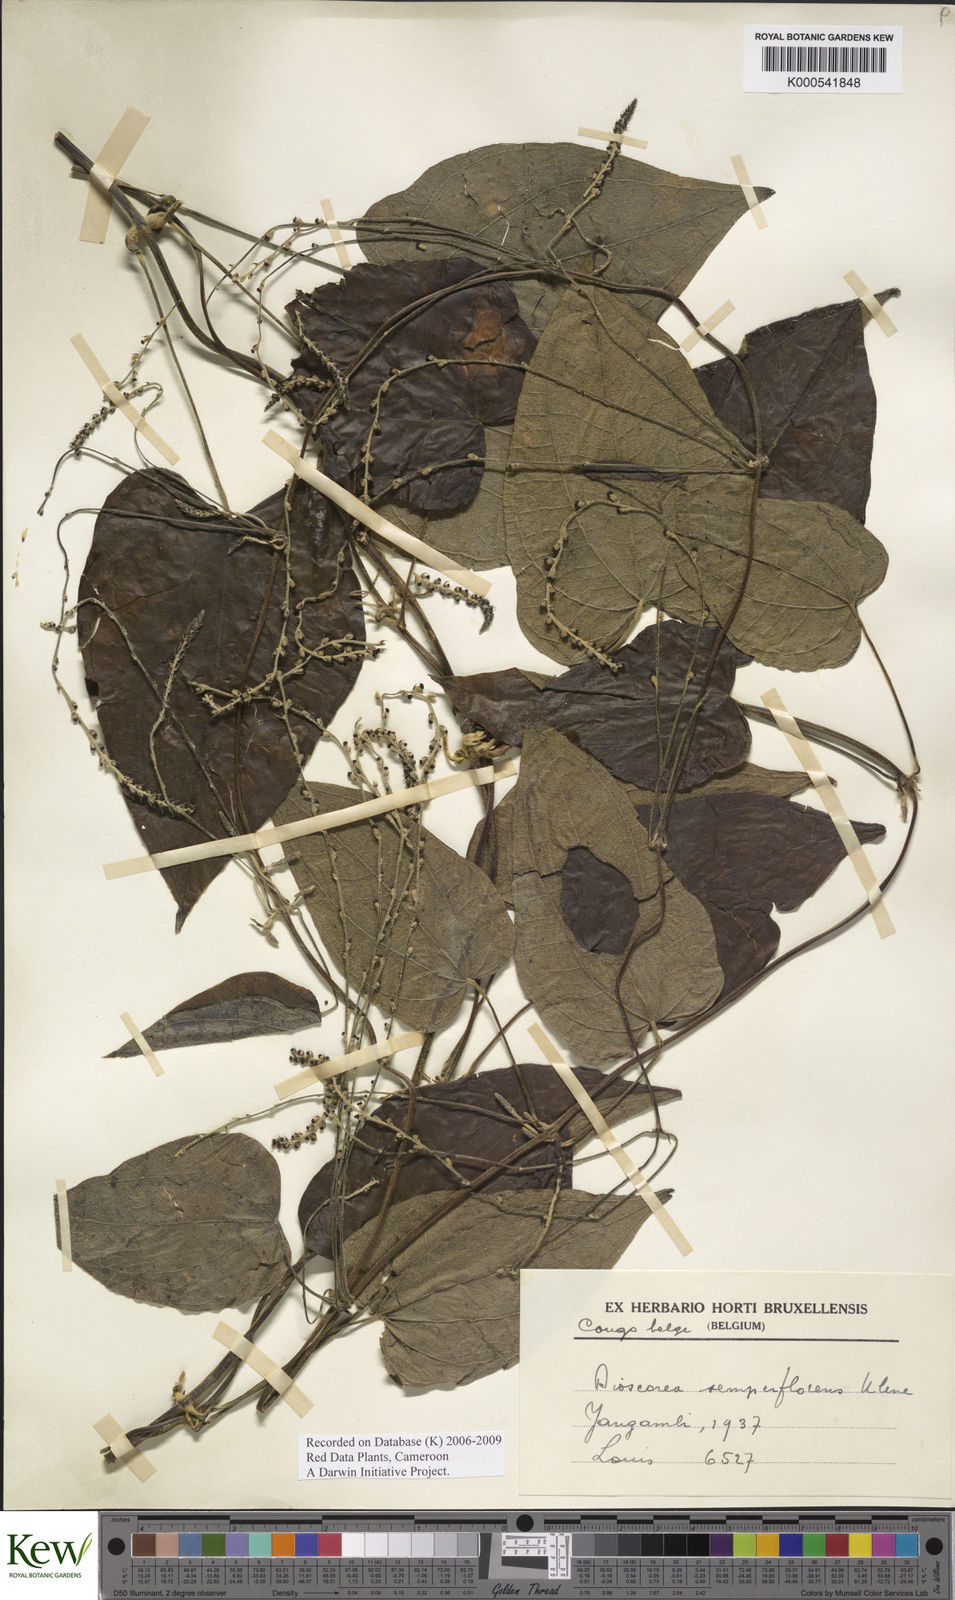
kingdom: Plantae
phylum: Tracheophyta
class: Liliopsida
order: Dioscoreales
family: Dioscoreaceae
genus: Dioscorea
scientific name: Dioscorea semperflorens
